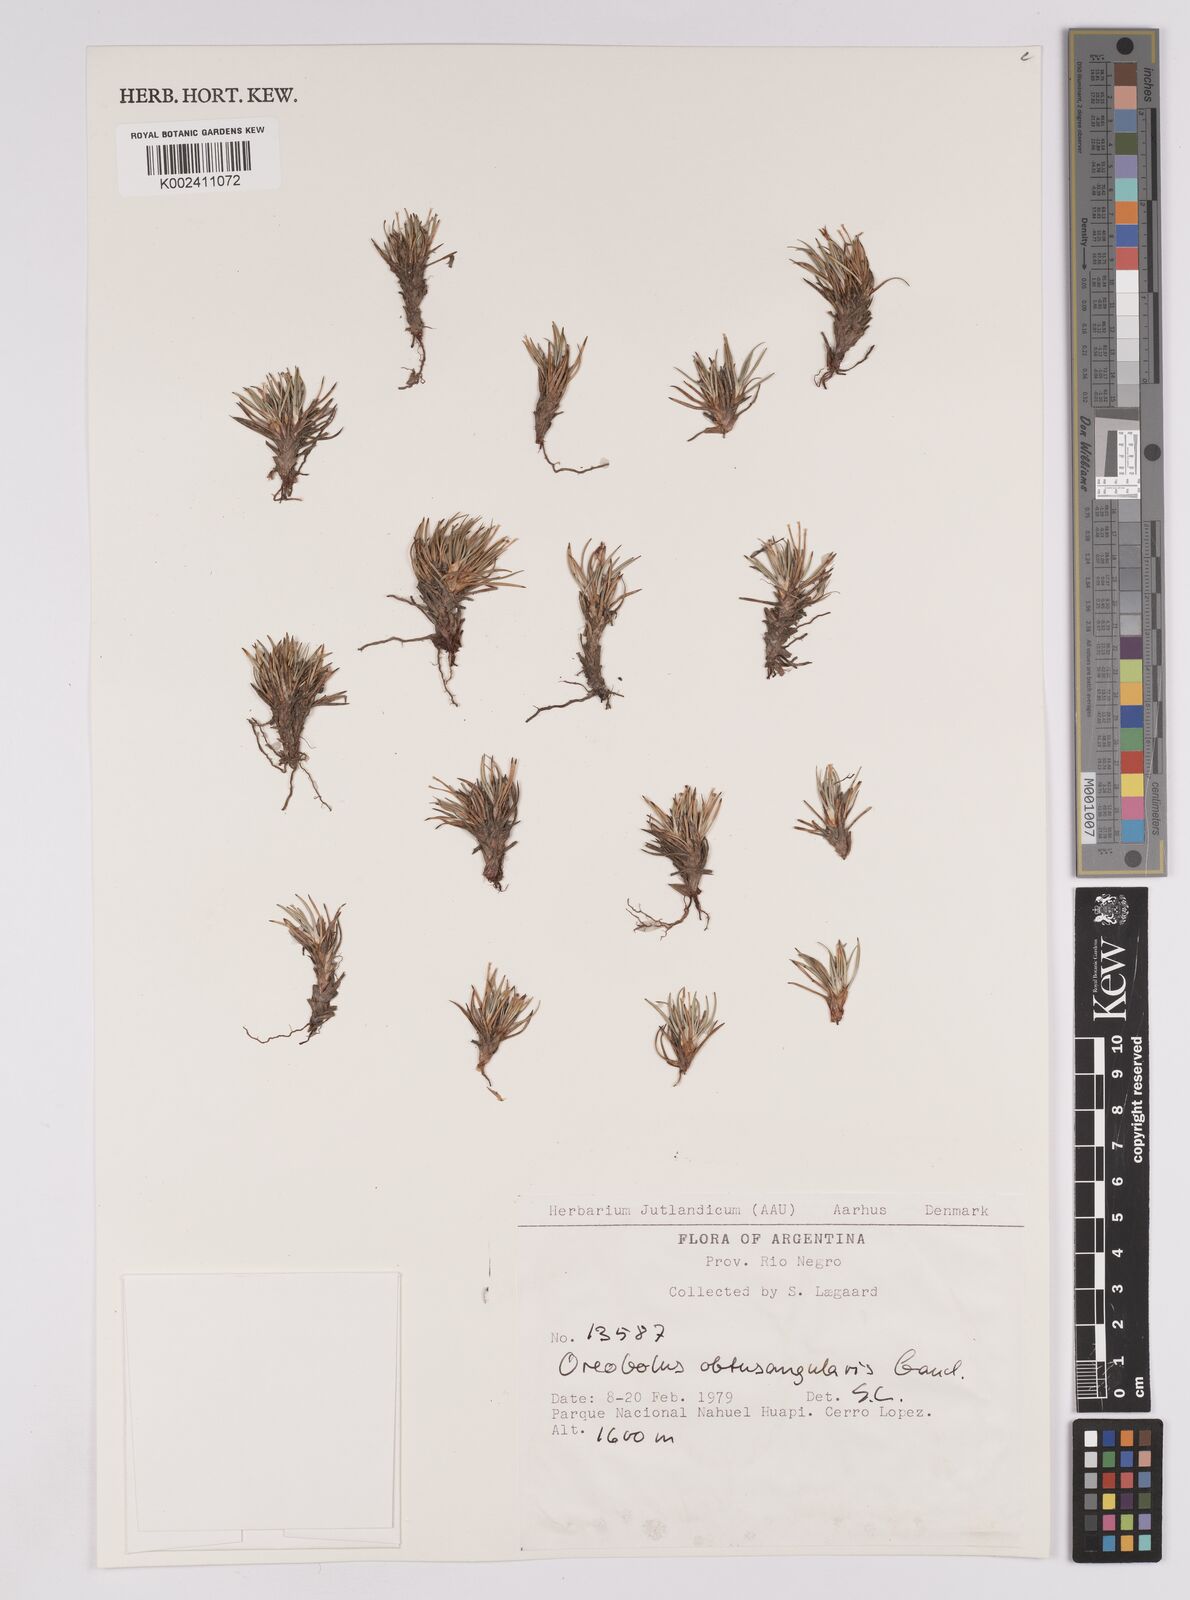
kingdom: Plantae
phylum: Tracheophyta
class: Liliopsida
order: Poales
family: Cyperaceae
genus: Oreobolus
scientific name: Oreobolus obtusangulus
